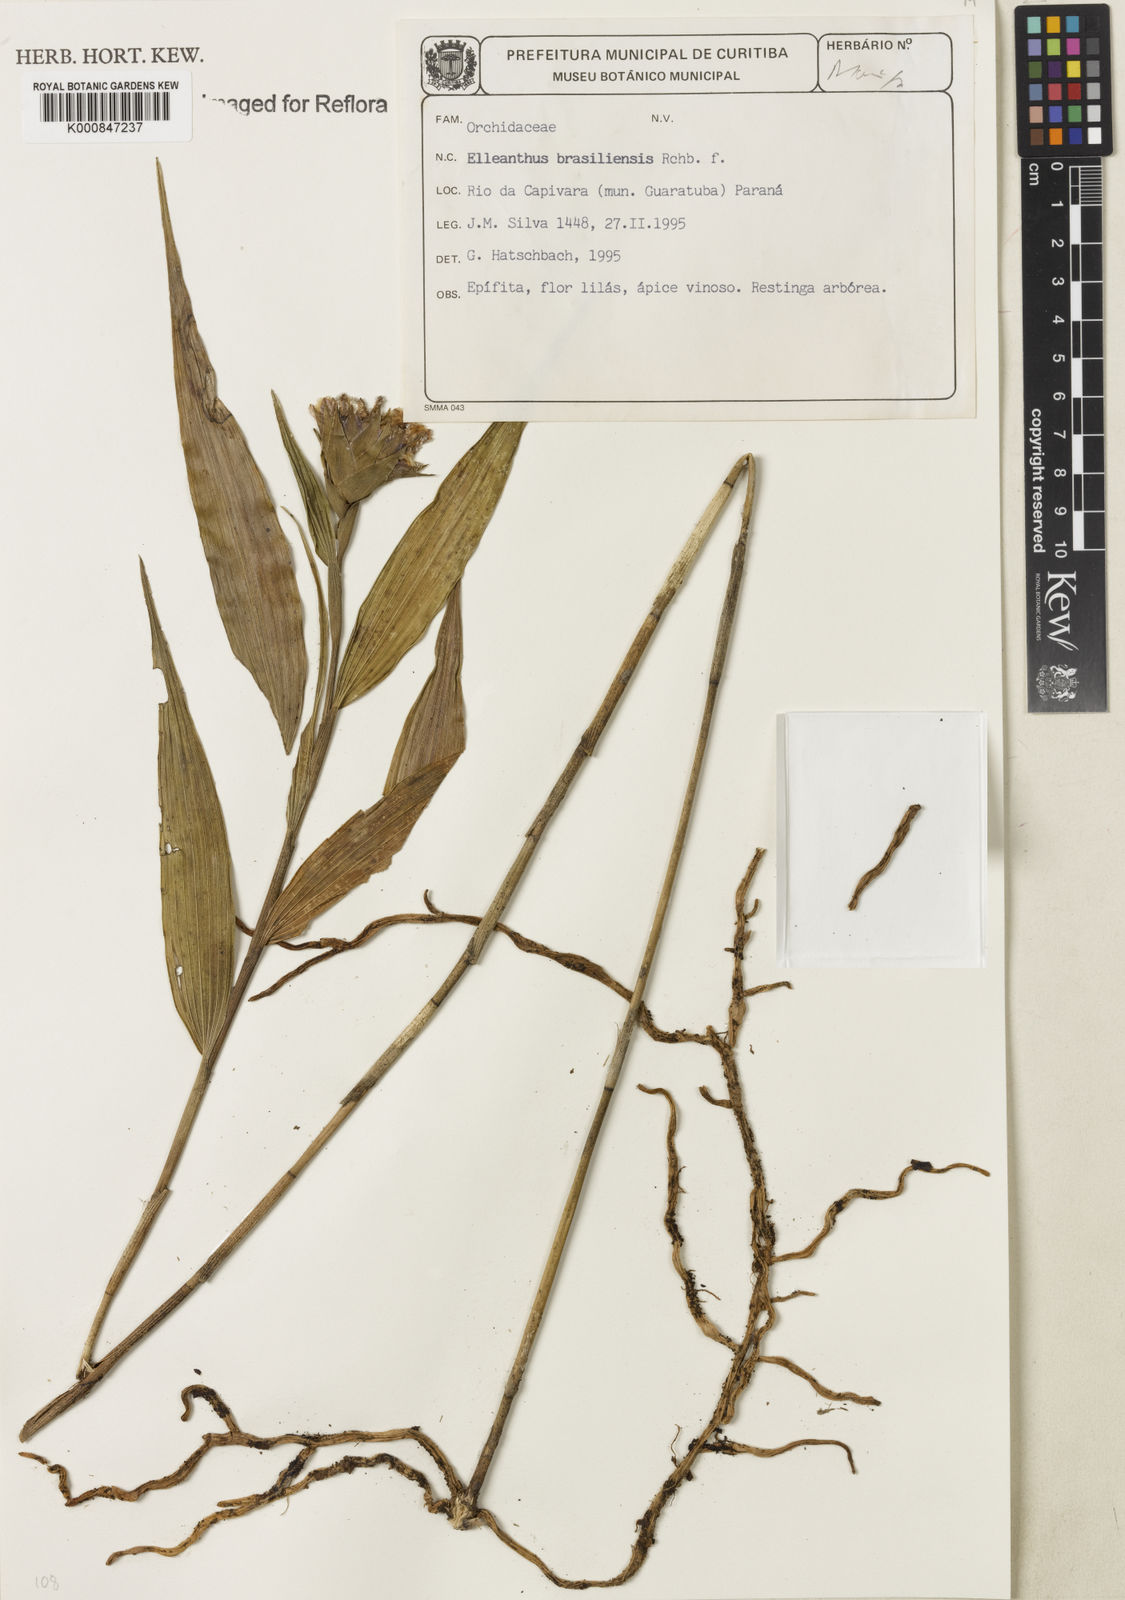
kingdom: Plantae
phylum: Tracheophyta
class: Liliopsida
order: Asparagales
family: Orchidaceae
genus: Elleanthus
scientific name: Elleanthus brasiliensis
